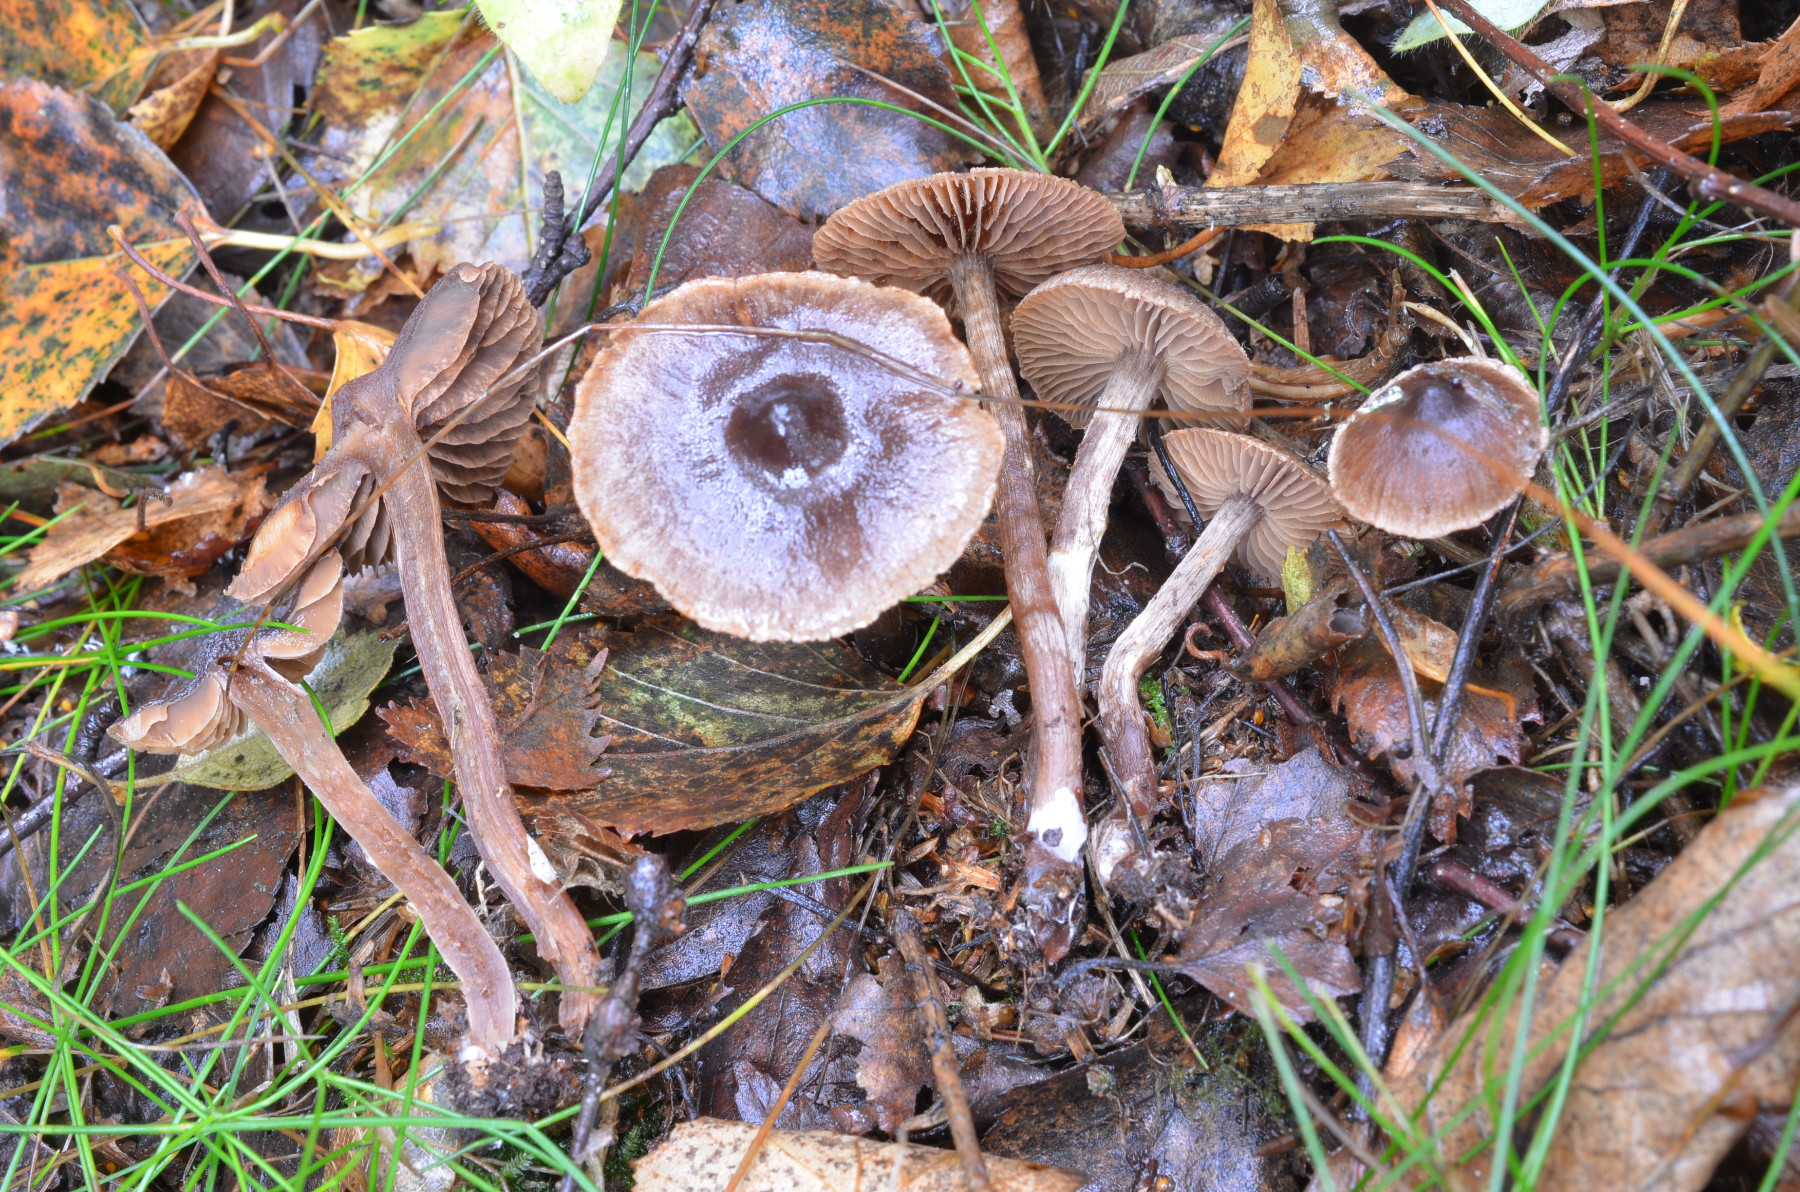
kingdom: Fungi
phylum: Basidiomycota
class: Agaricomycetes
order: Agaricales
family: Cortinariaceae
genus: Cortinarius
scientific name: Cortinarius umbrinolens
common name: mørk slørhat
